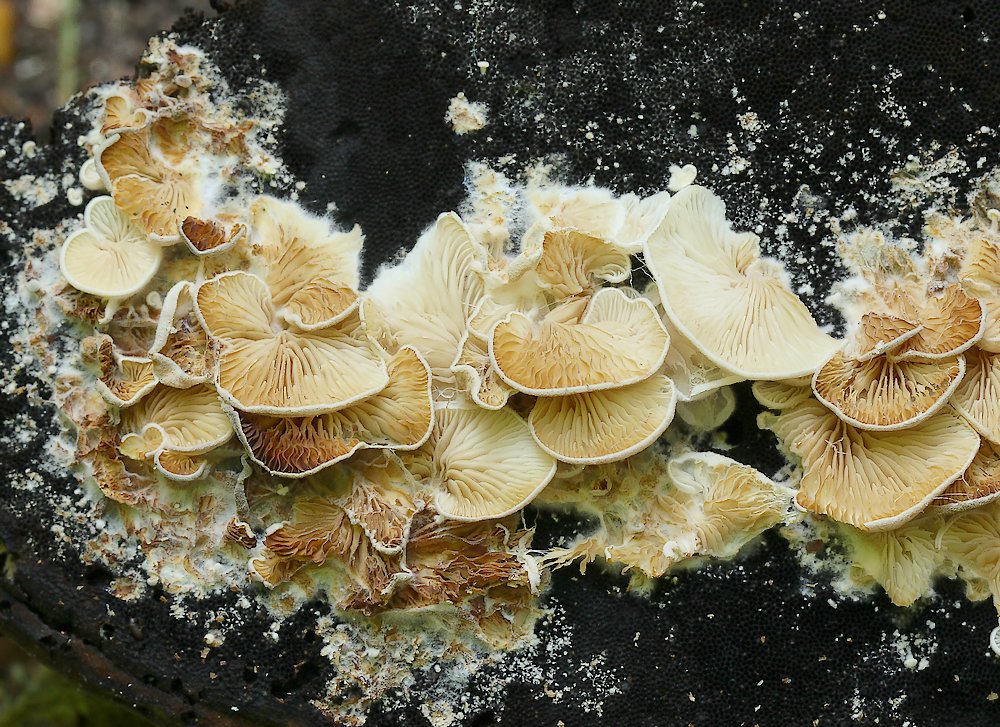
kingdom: Fungi
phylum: Basidiomycota
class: Agaricomycetes
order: Agaricales
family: Entolomataceae
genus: Clitopilus
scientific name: Clitopilus hobsonii
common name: Miller's oysterling
